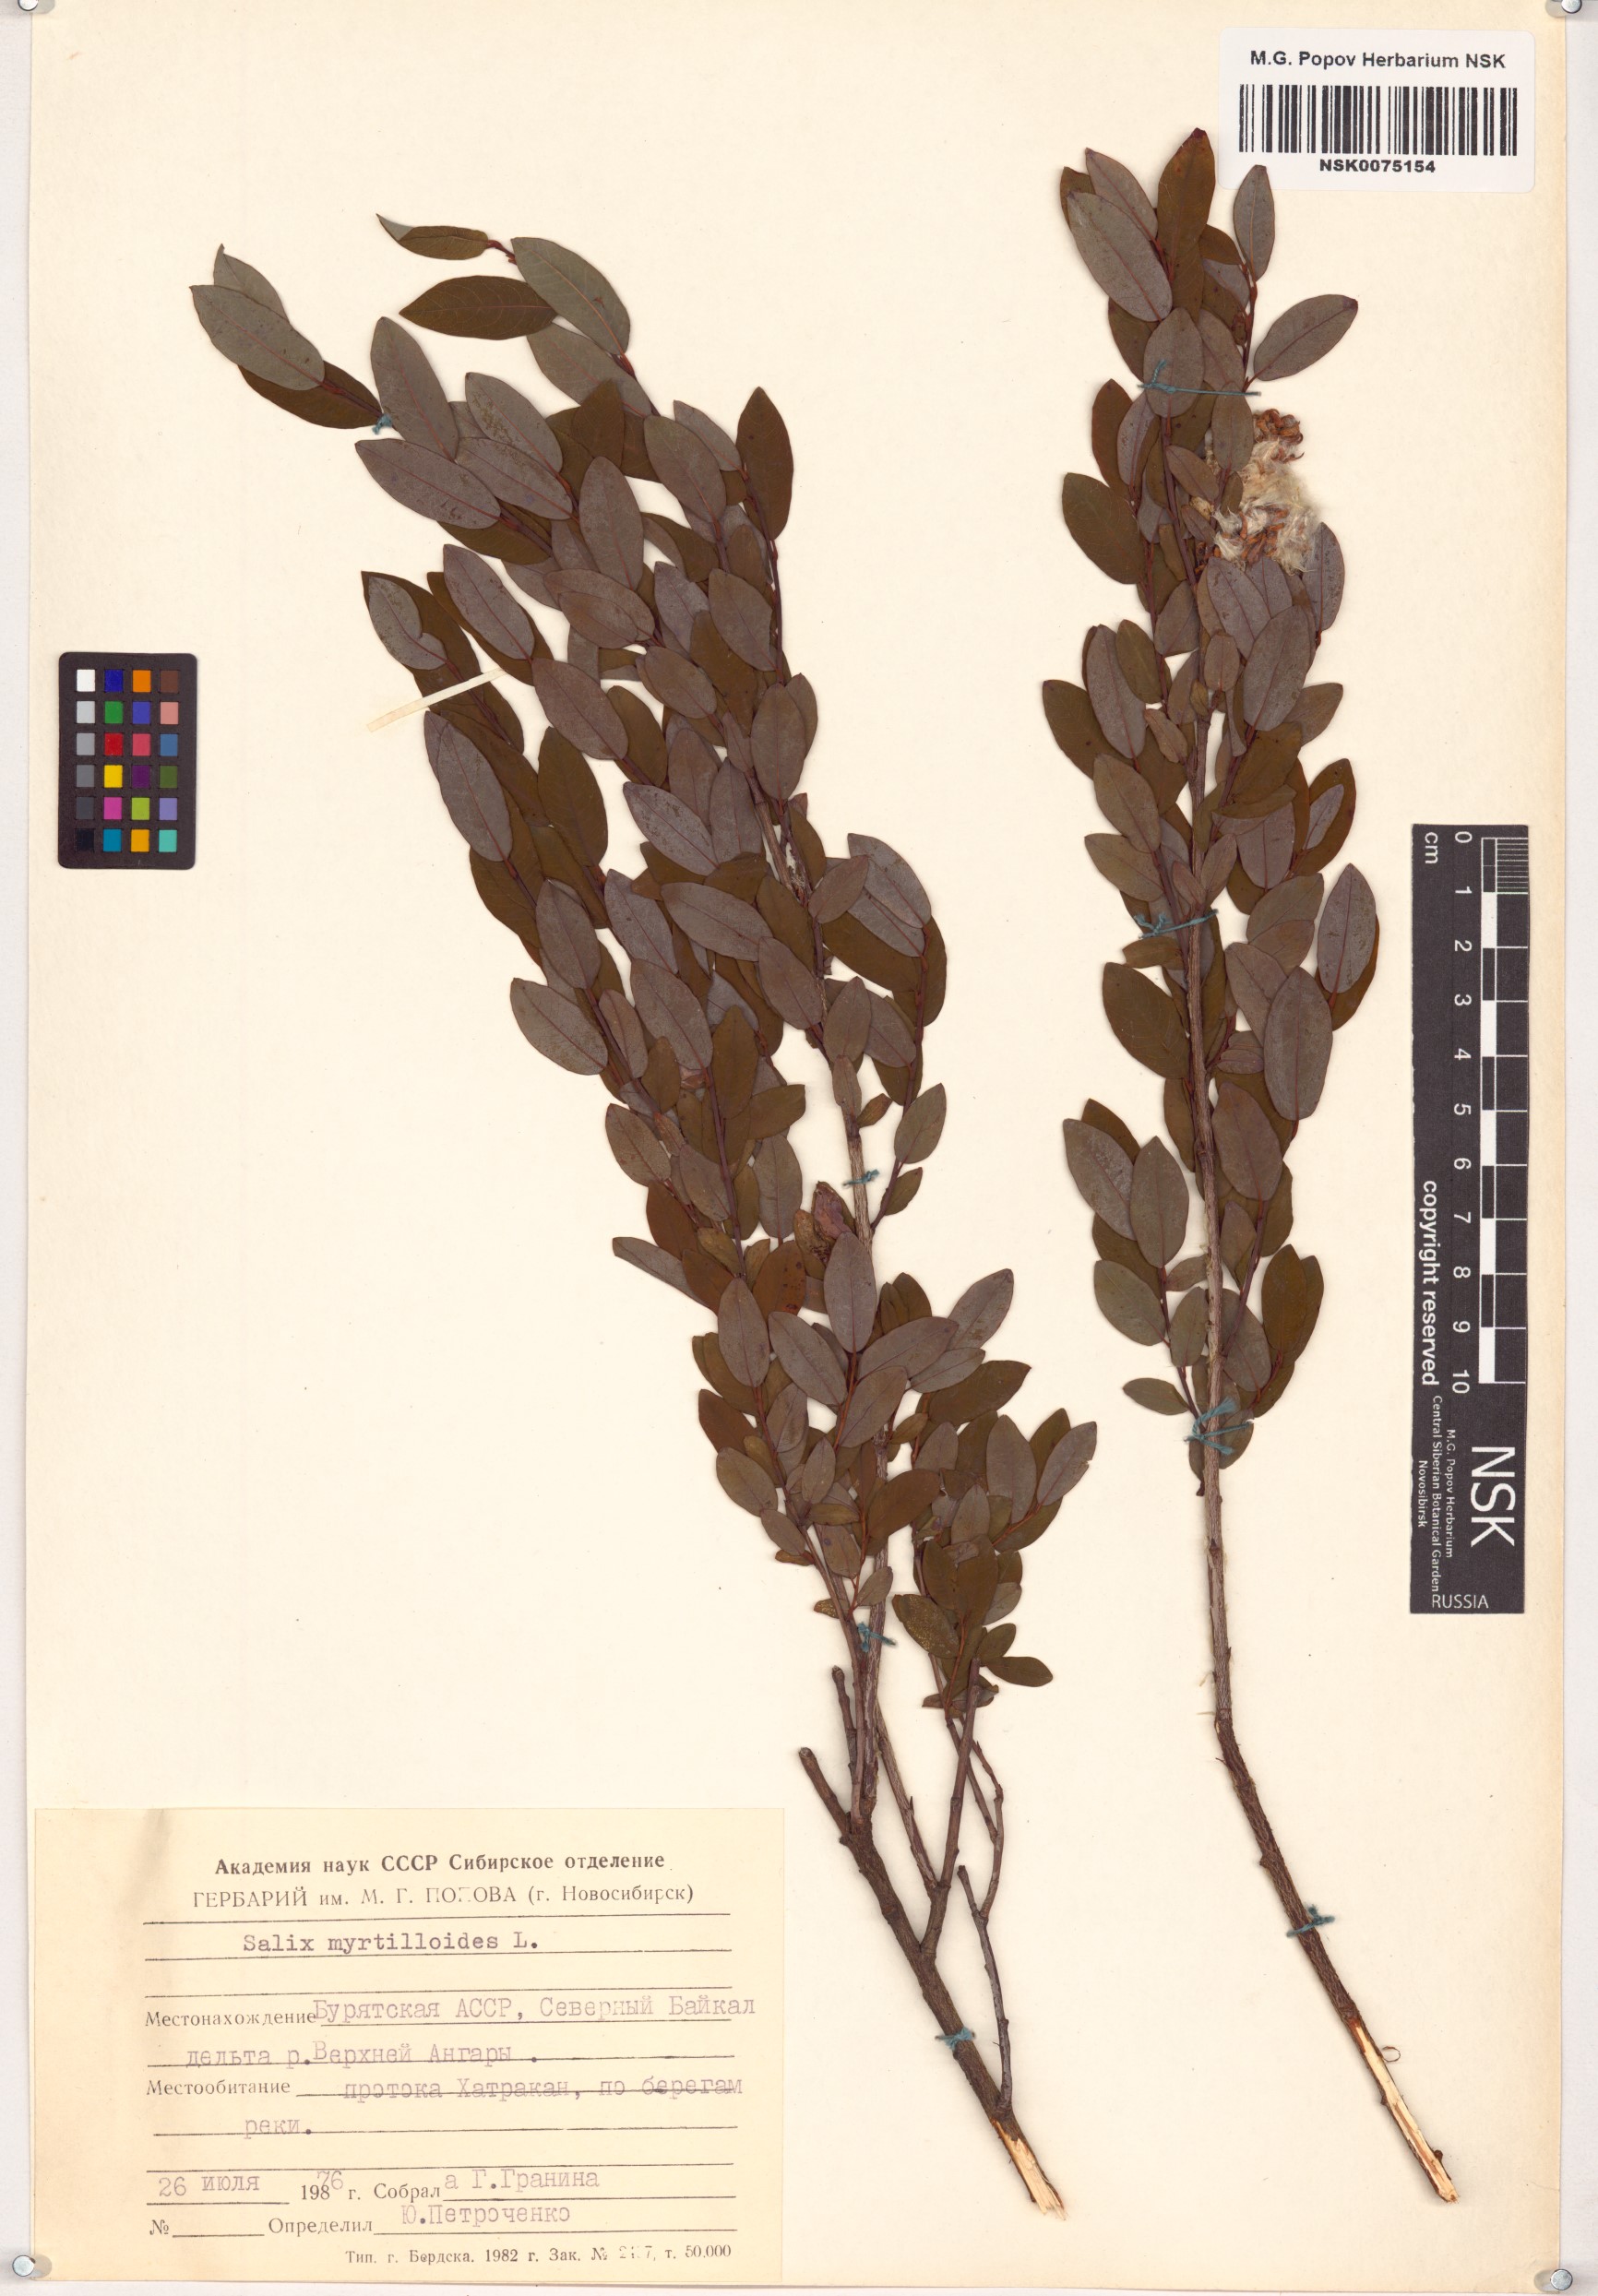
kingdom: Plantae
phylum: Tracheophyta
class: Magnoliopsida
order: Malpighiales
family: Salicaceae
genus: Salix
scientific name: Salix myrtilloides
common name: Myrtle-leaved willow
